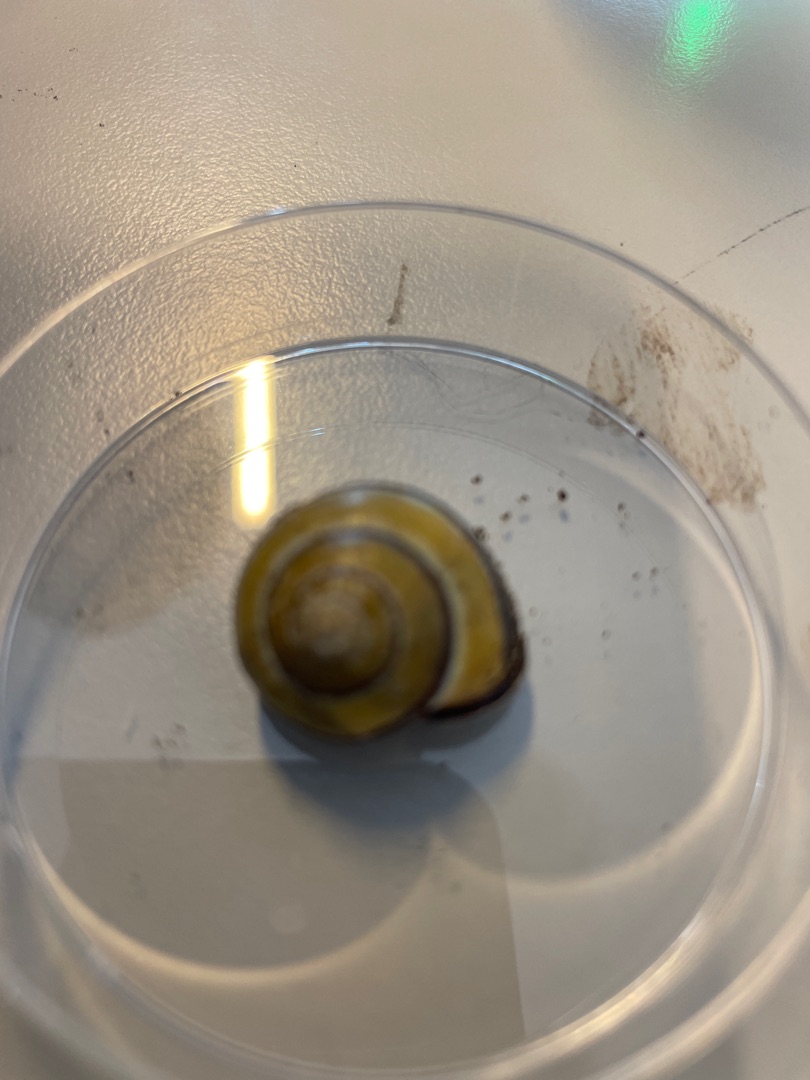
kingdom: Animalia
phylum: Mollusca
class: Gastropoda
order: Stylommatophora
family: Helicidae
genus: Cepaea
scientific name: Cepaea nemoralis
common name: Lundsnegl
